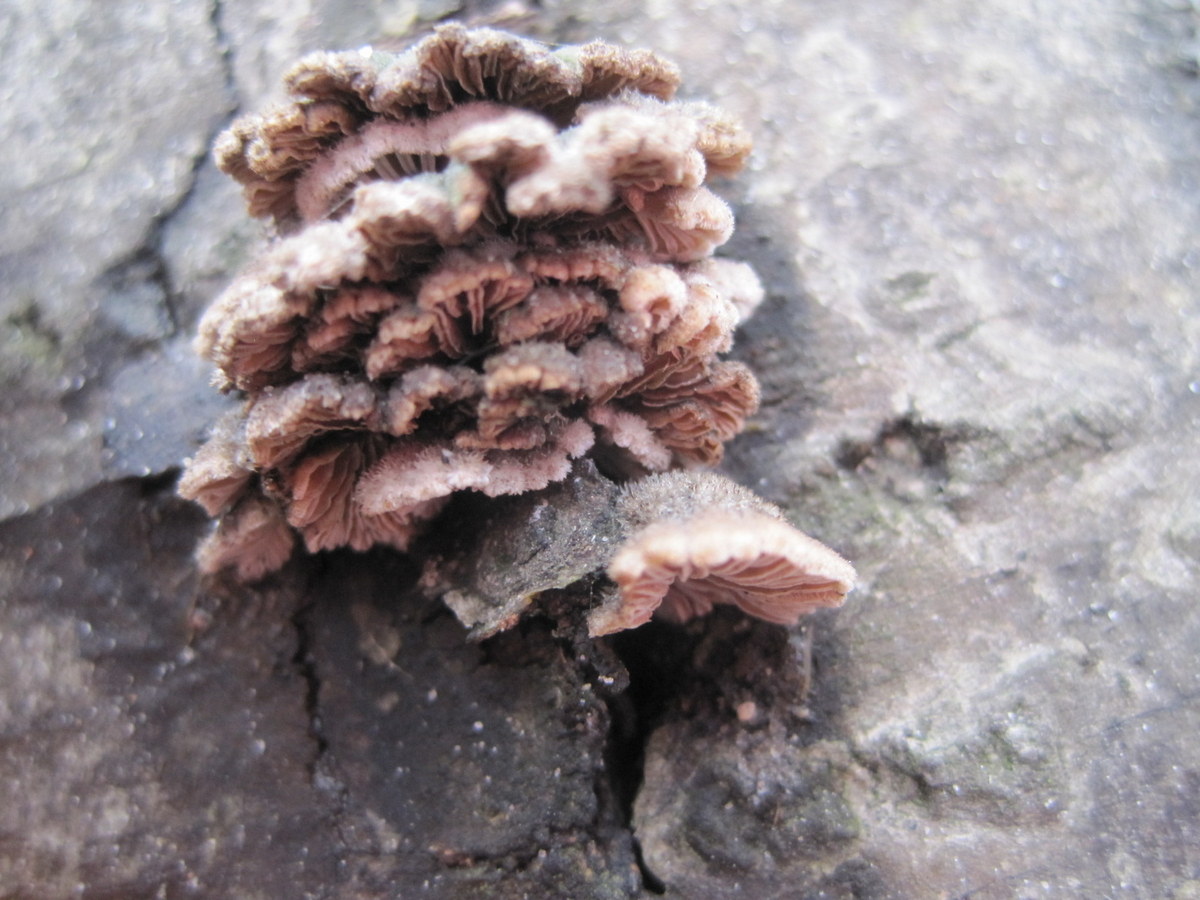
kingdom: Fungi
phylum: Basidiomycota
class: Agaricomycetes
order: Agaricales
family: Schizophyllaceae
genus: Schizophyllum
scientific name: Schizophyllum commune
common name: kløvblad
